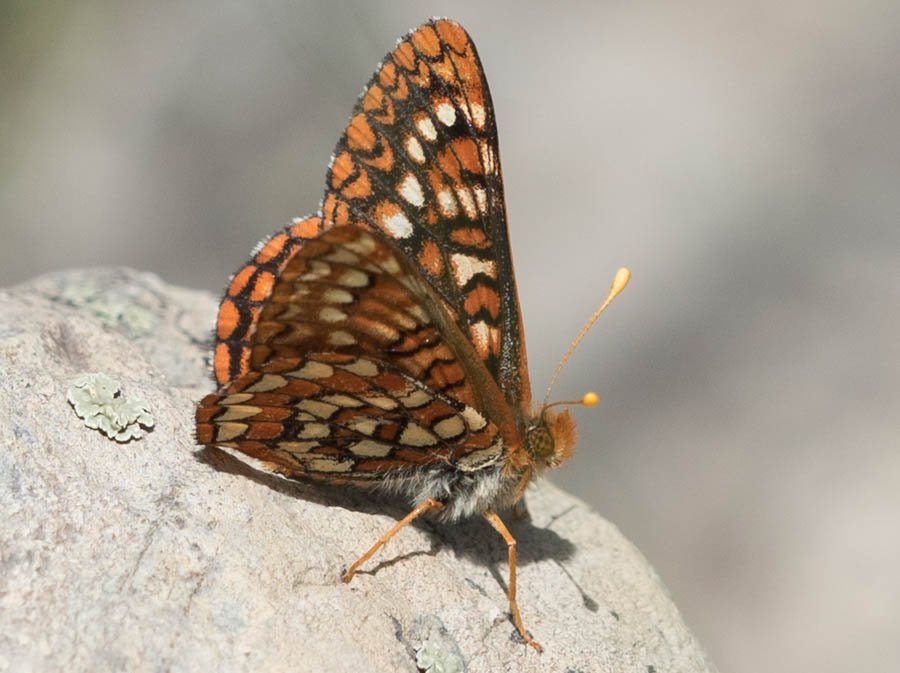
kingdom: Animalia
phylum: Arthropoda
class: Insecta
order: Lepidoptera
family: Nymphalidae
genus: Occidryas
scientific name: Occidryas anicia
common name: Anicia Checkerspot
